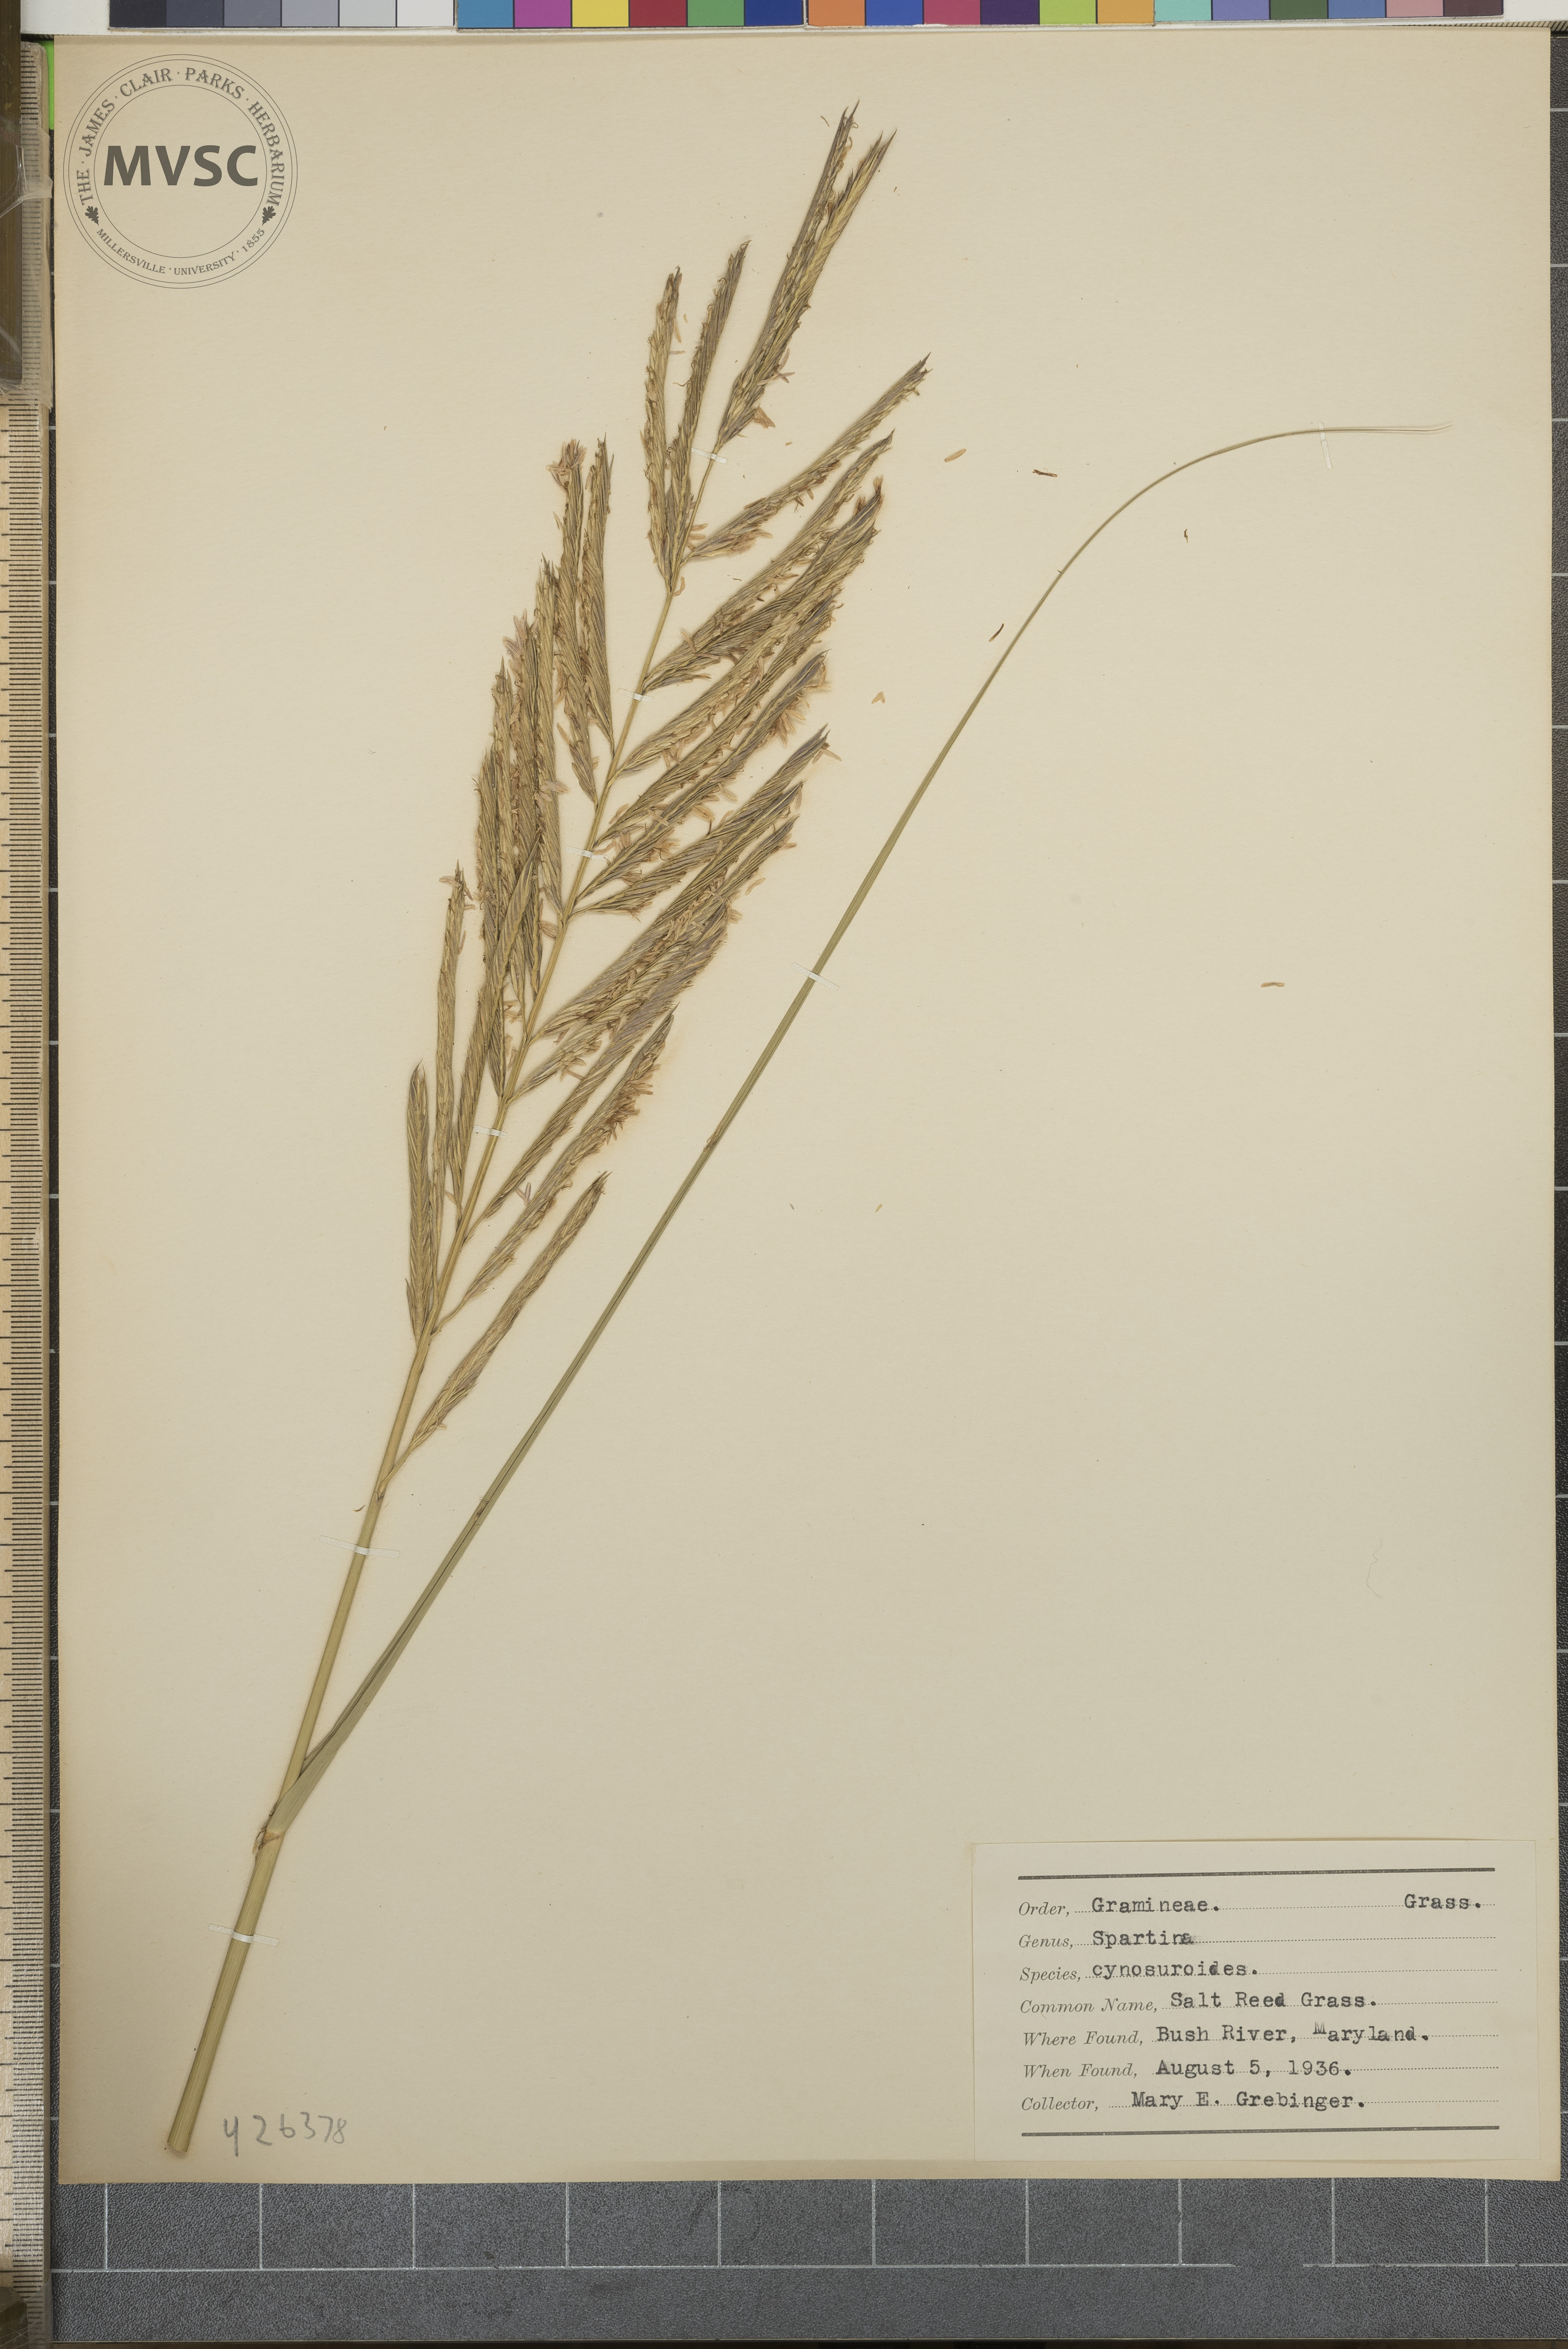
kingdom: Plantae
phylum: Tracheophyta
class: Liliopsida
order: Poales
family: Poaceae
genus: Sporobolus
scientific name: Sporobolus cynosuroides
